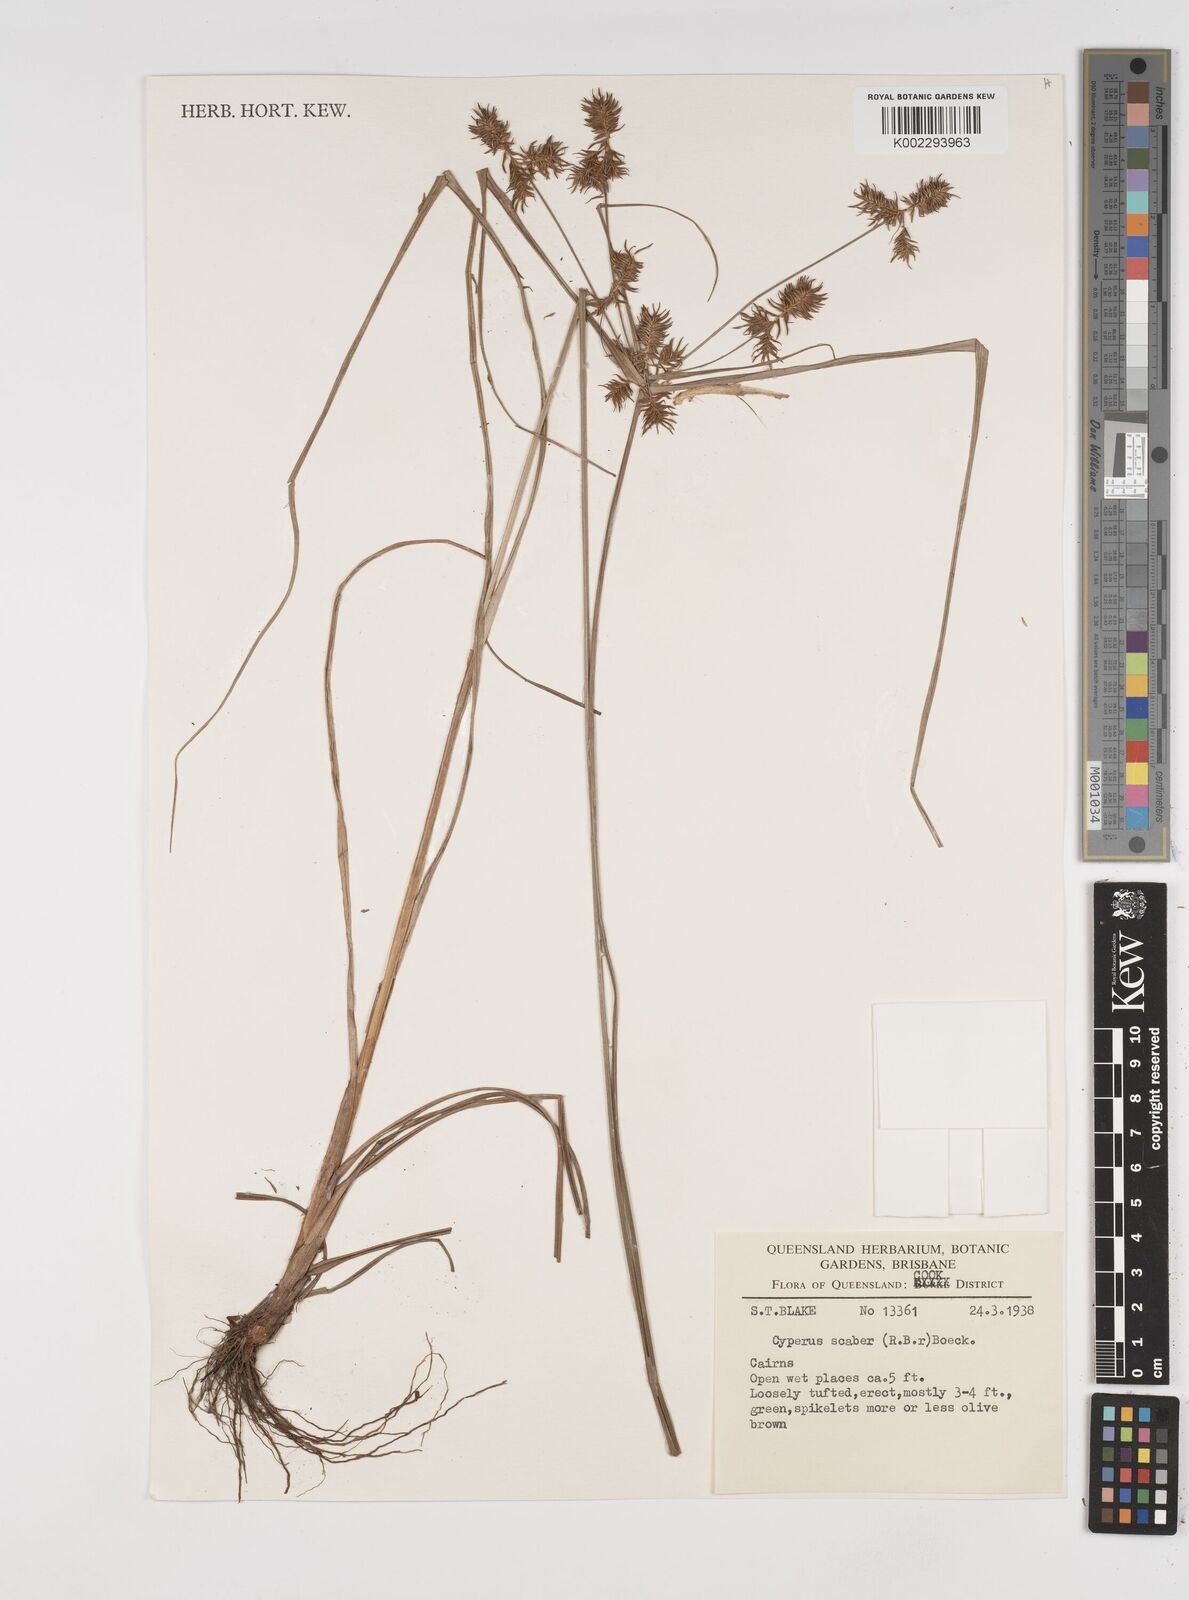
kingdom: Plantae
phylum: Tracheophyta
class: Liliopsida
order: Poales
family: Cyperaceae
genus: Cyperus
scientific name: Cyperus scaber
